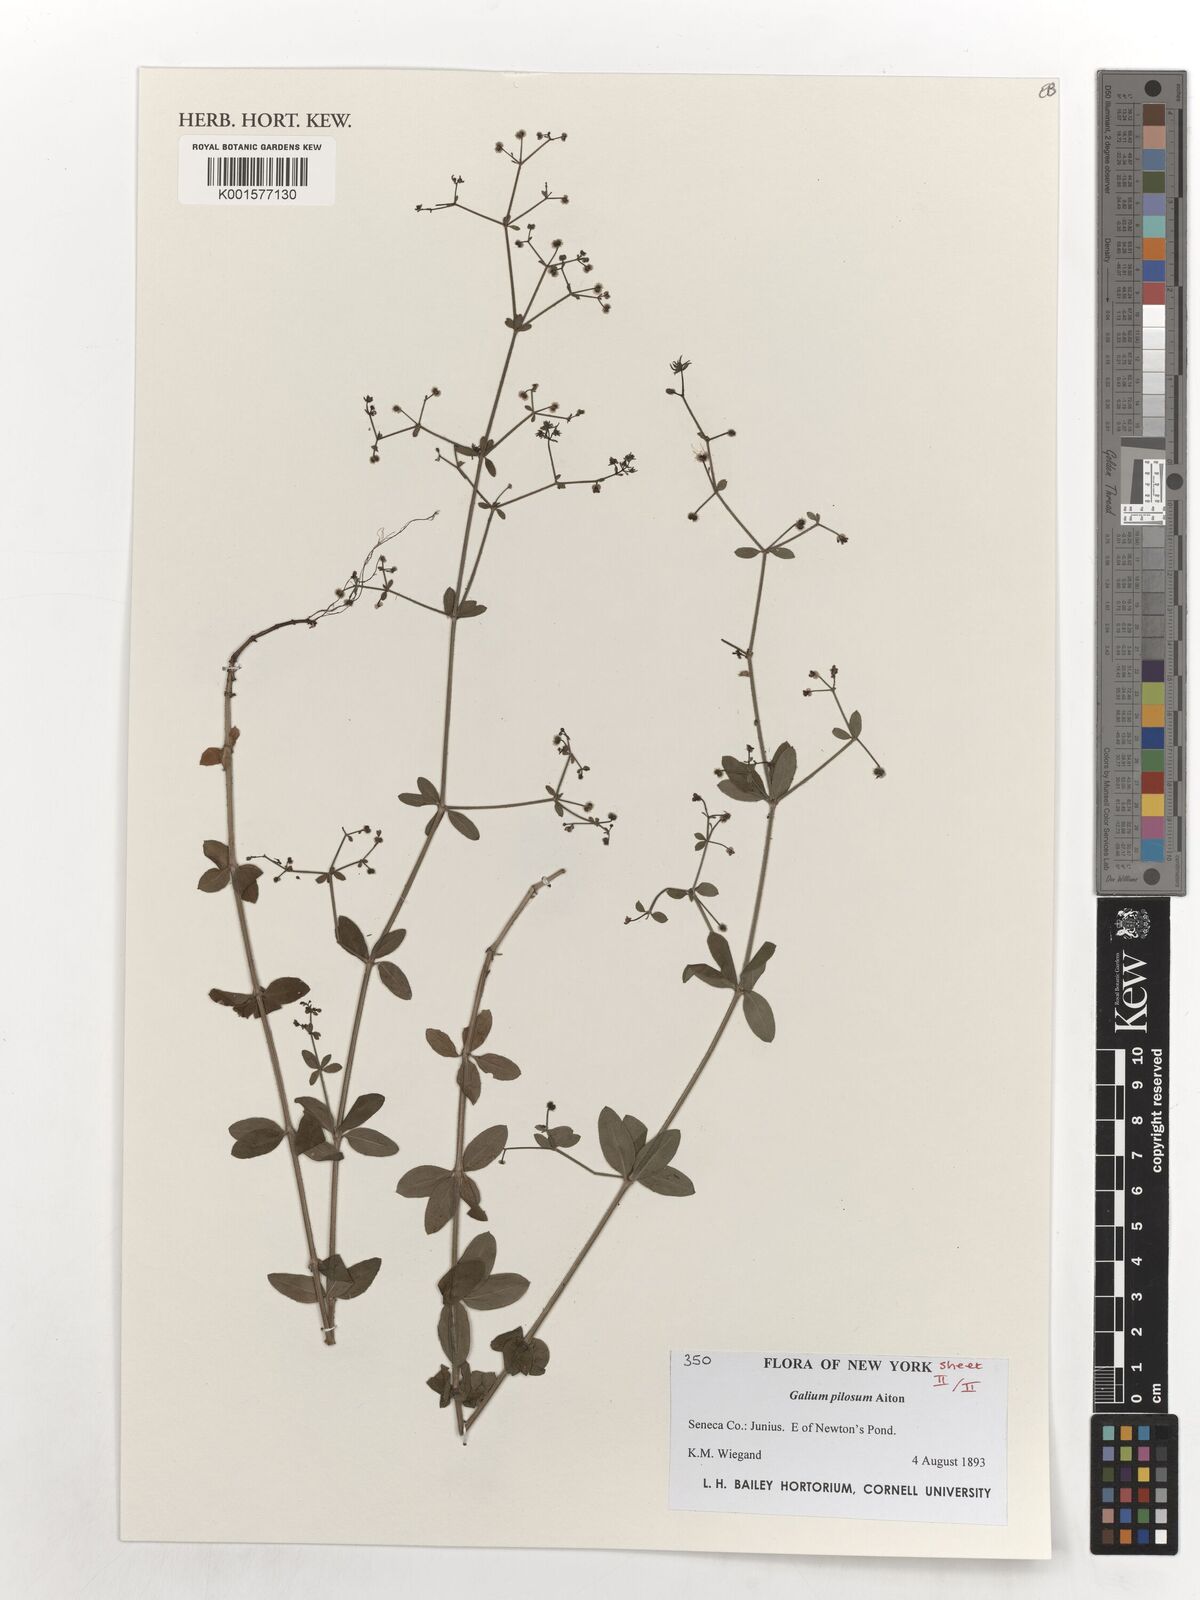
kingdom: Plantae
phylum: Tracheophyta
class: Magnoliopsida
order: Gentianales
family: Rubiaceae
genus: Galium
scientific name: Galium pilosum
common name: Hairy bedstraw
